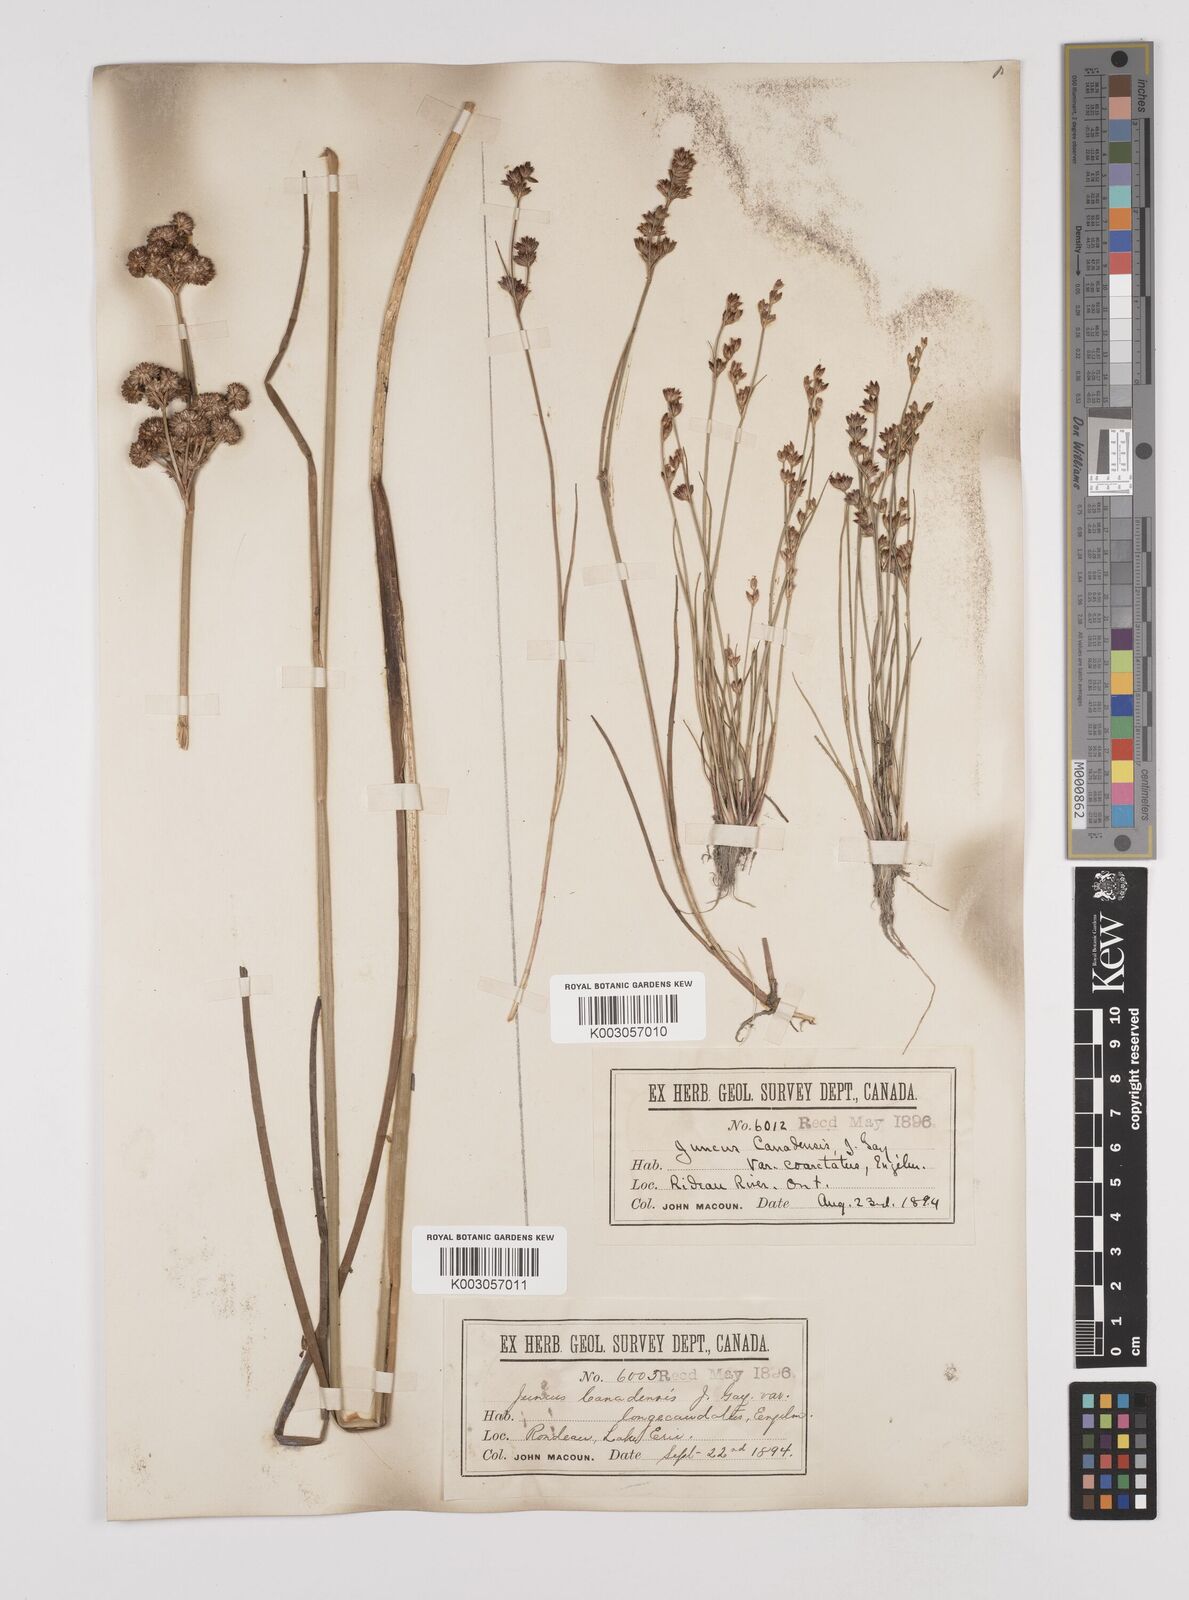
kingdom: Plantae
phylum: Tracheophyta
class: Liliopsida
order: Poales
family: Juncaceae
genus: Juncus
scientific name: Juncus trigonocarpus
